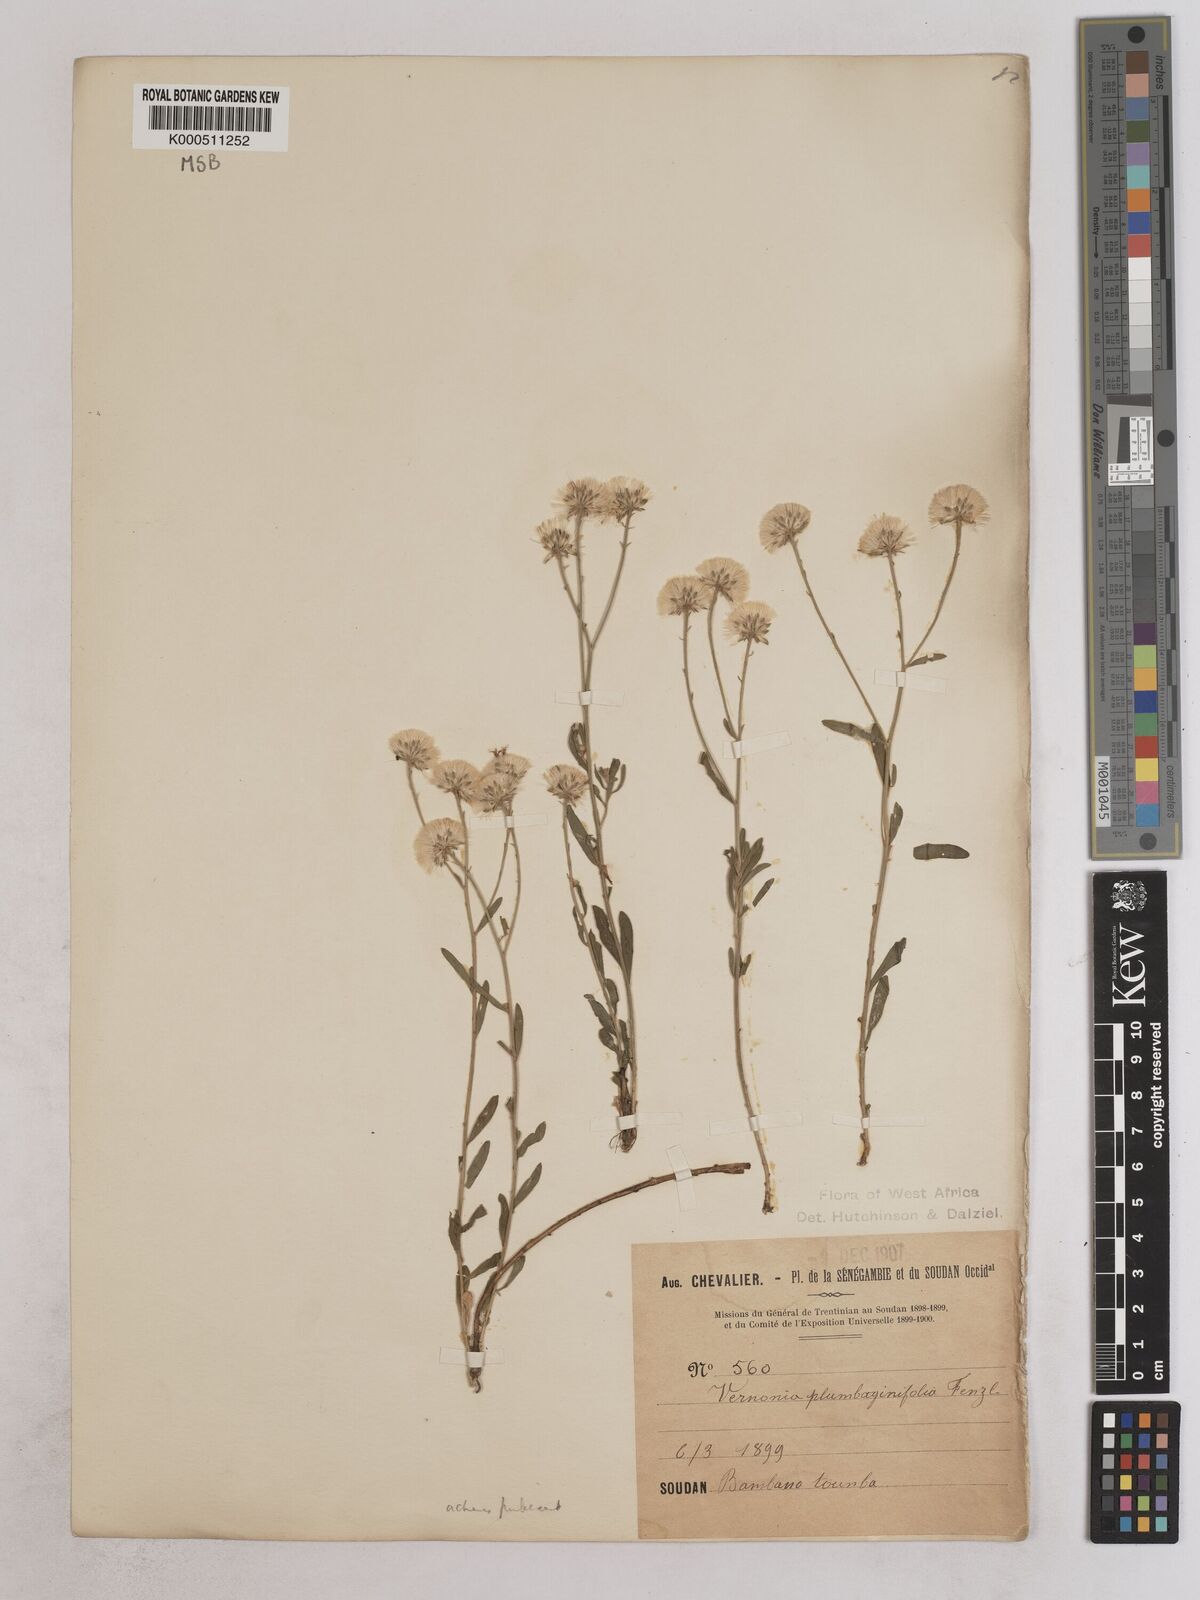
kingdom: Plantae
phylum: Tracheophyta
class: Magnoliopsida
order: Asterales
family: Asteraceae
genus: Vernonia
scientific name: Vernonia
